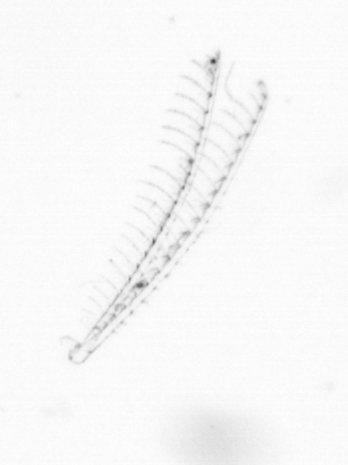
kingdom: Chromista
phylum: Ochrophyta
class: Bacillariophyceae
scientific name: Bacillariophyceae
